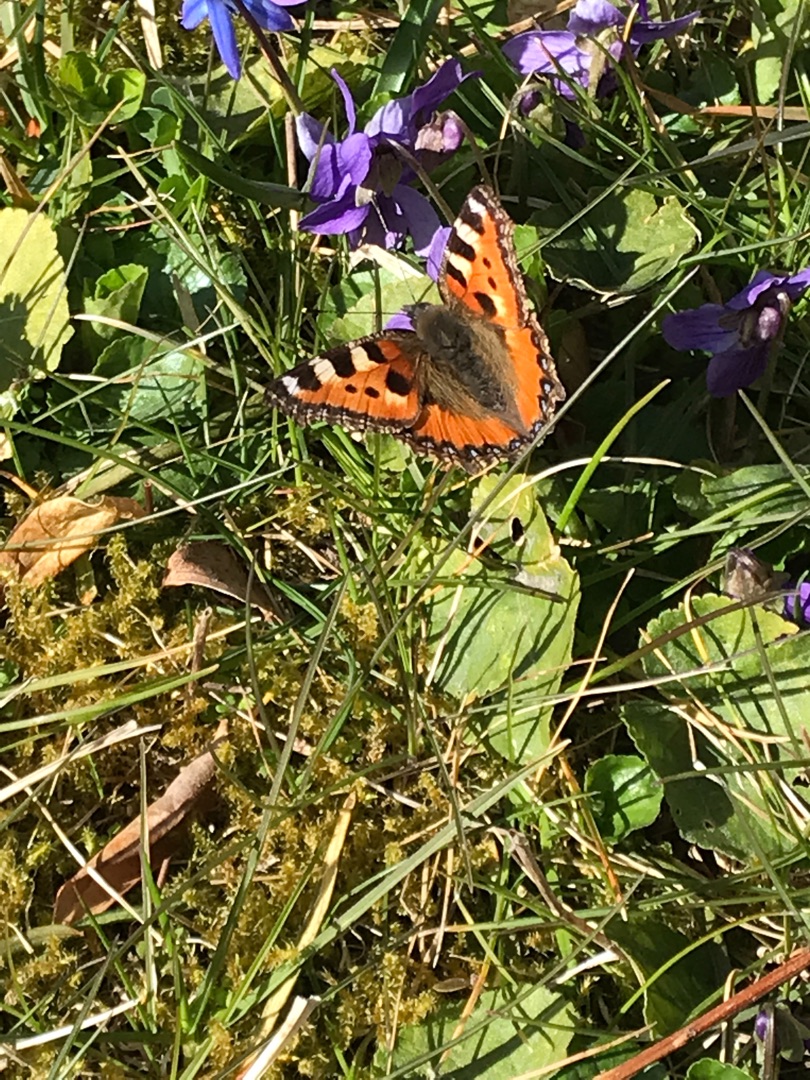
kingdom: Animalia
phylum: Arthropoda
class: Insecta
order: Lepidoptera
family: Nymphalidae
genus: Aglais
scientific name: Aglais urticae
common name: Nældens takvinge
